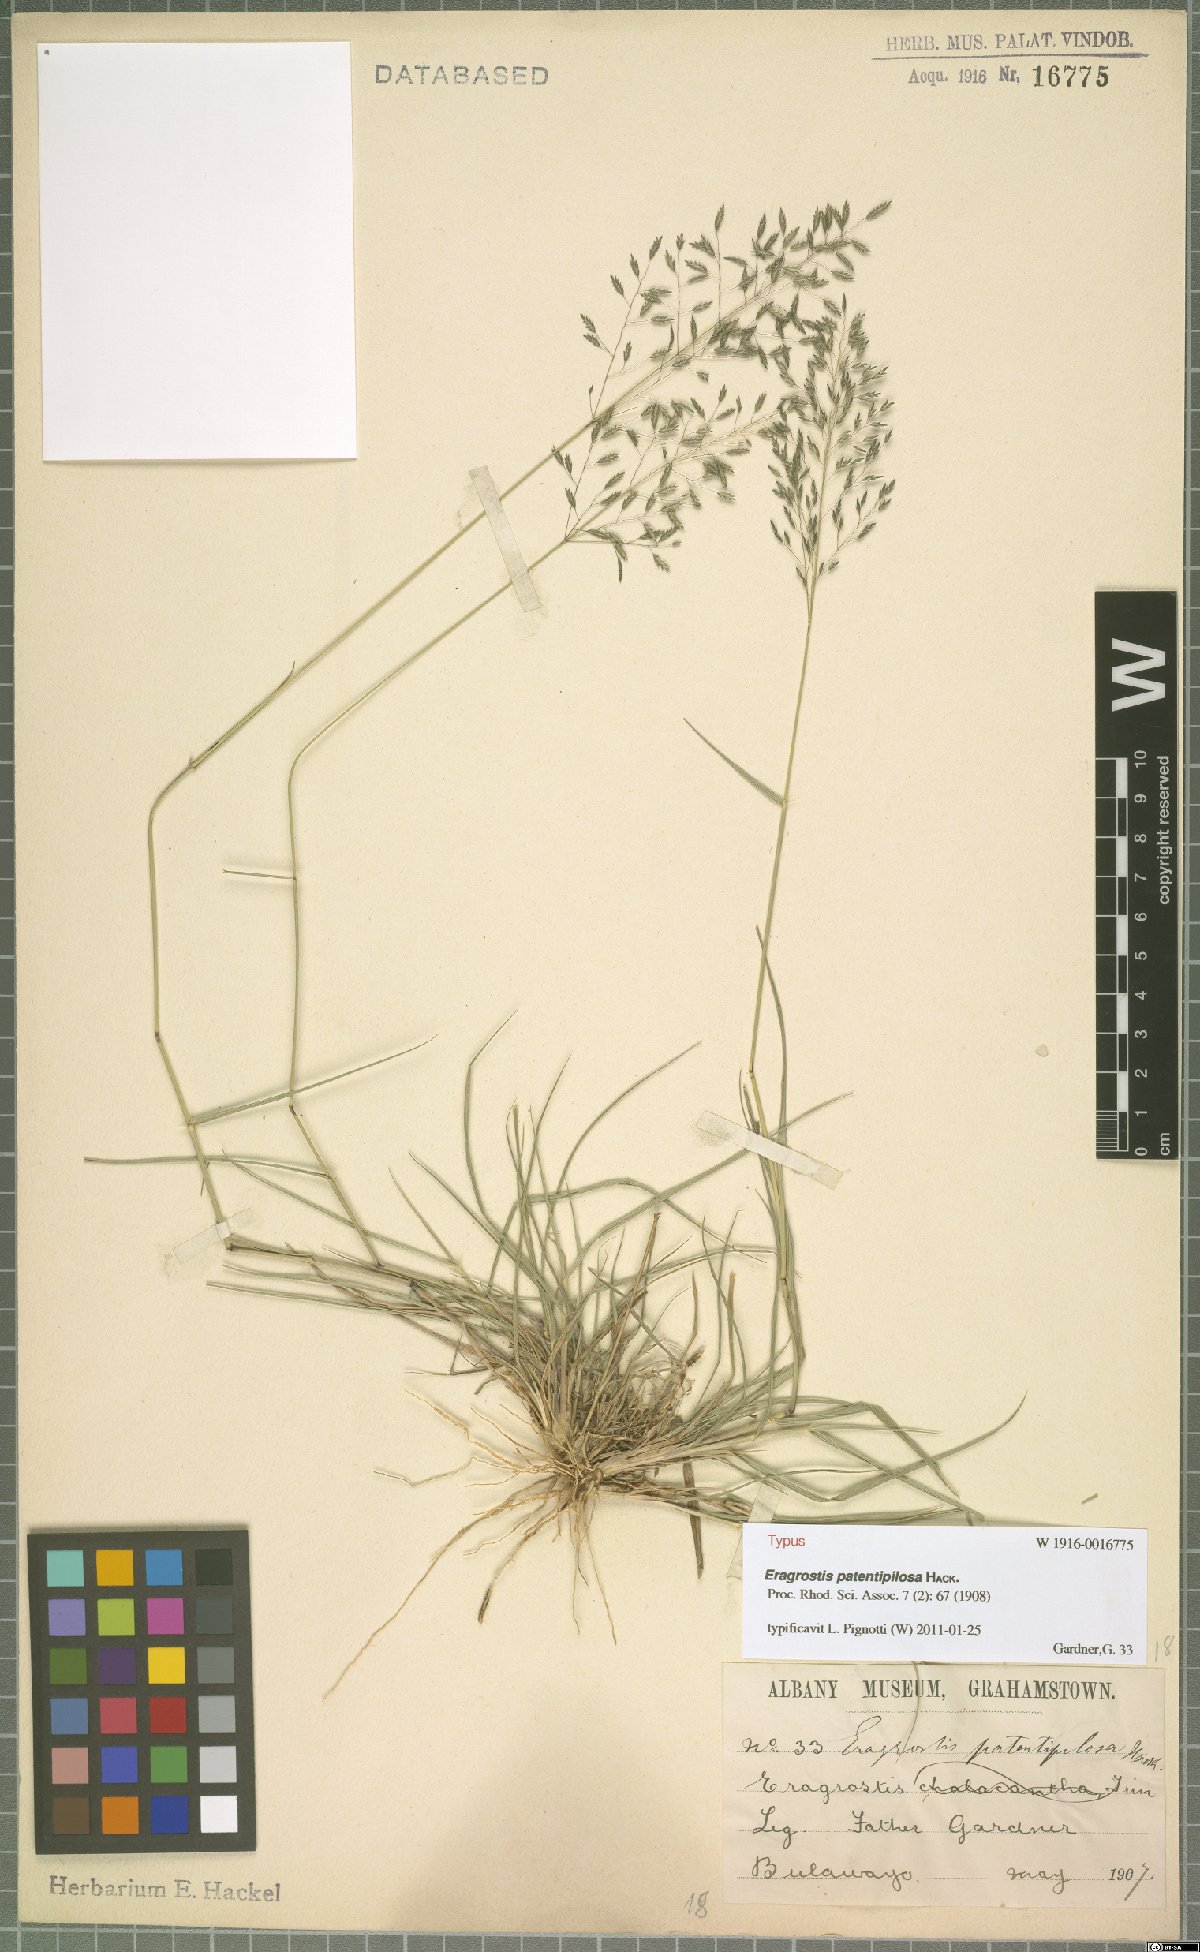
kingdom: Plantae
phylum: Tracheophyta
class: Liliopsida
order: Poales
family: Poaceae
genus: Eragrostis
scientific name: Eragrostis patentipilosa
